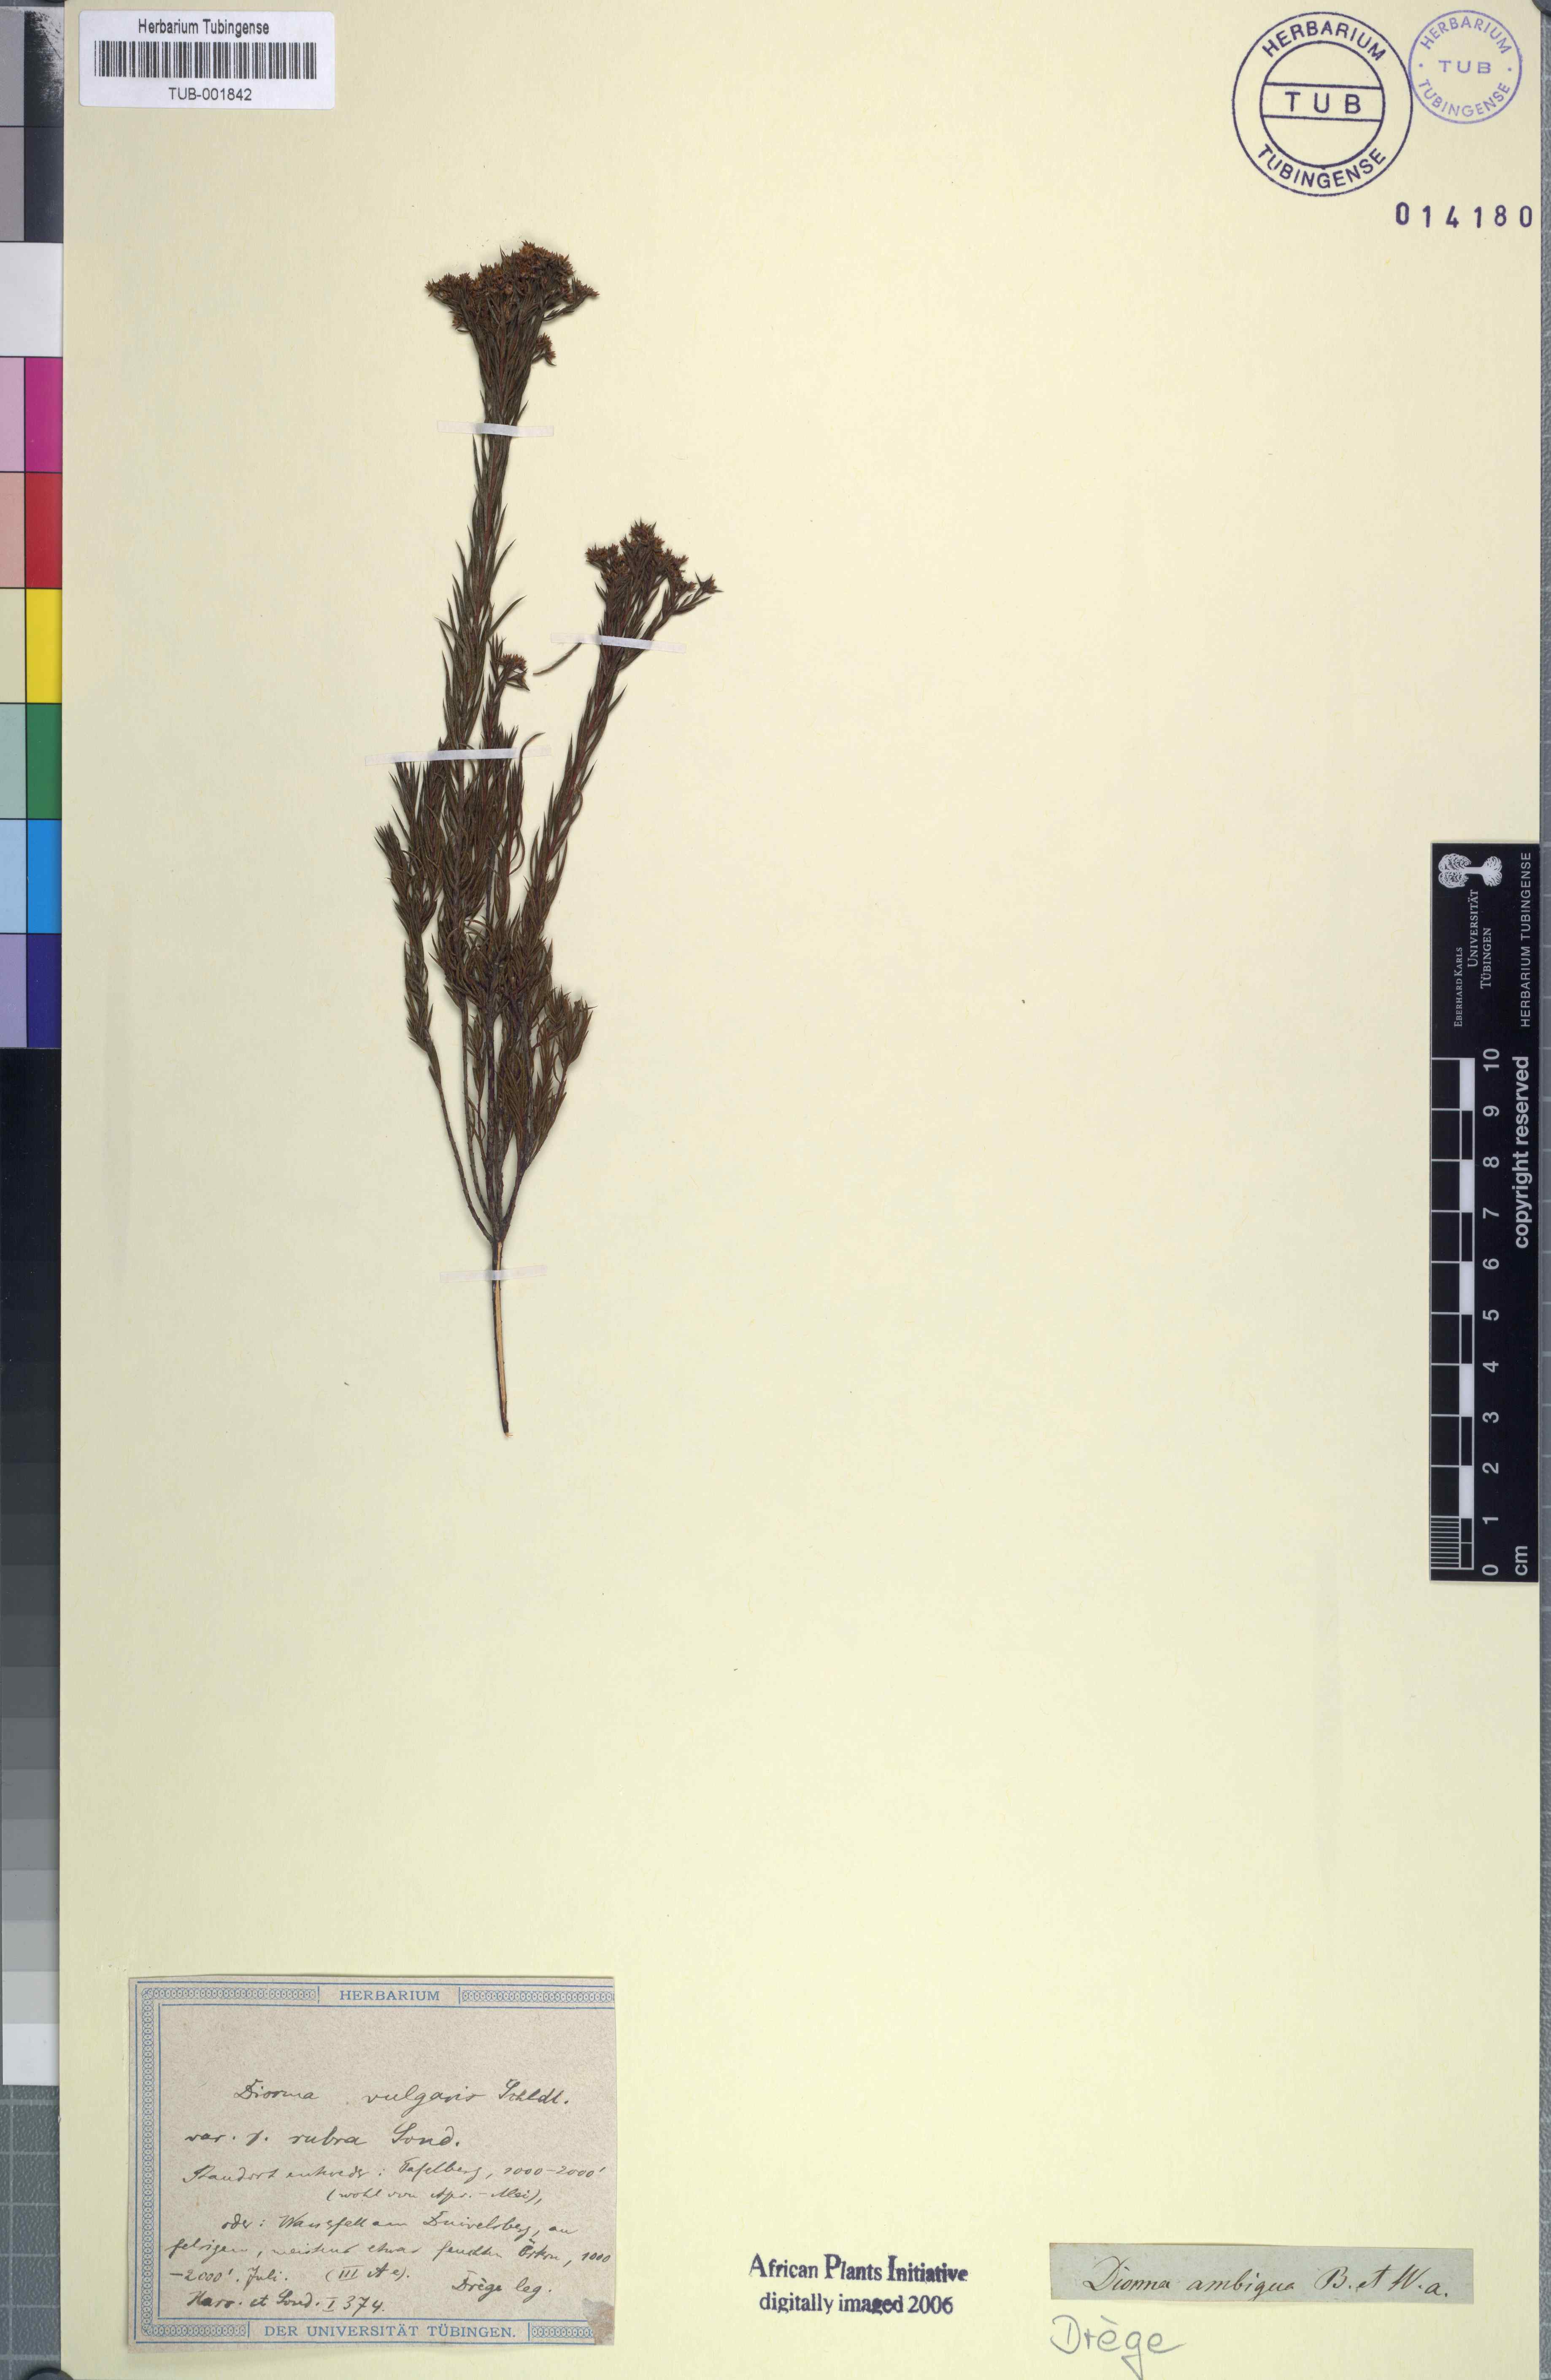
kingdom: Plantae
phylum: Tracheophyta
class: Magnoliopsida
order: Sapindales
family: Rutaceae
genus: Diosma
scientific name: Diosma oppositifolia
